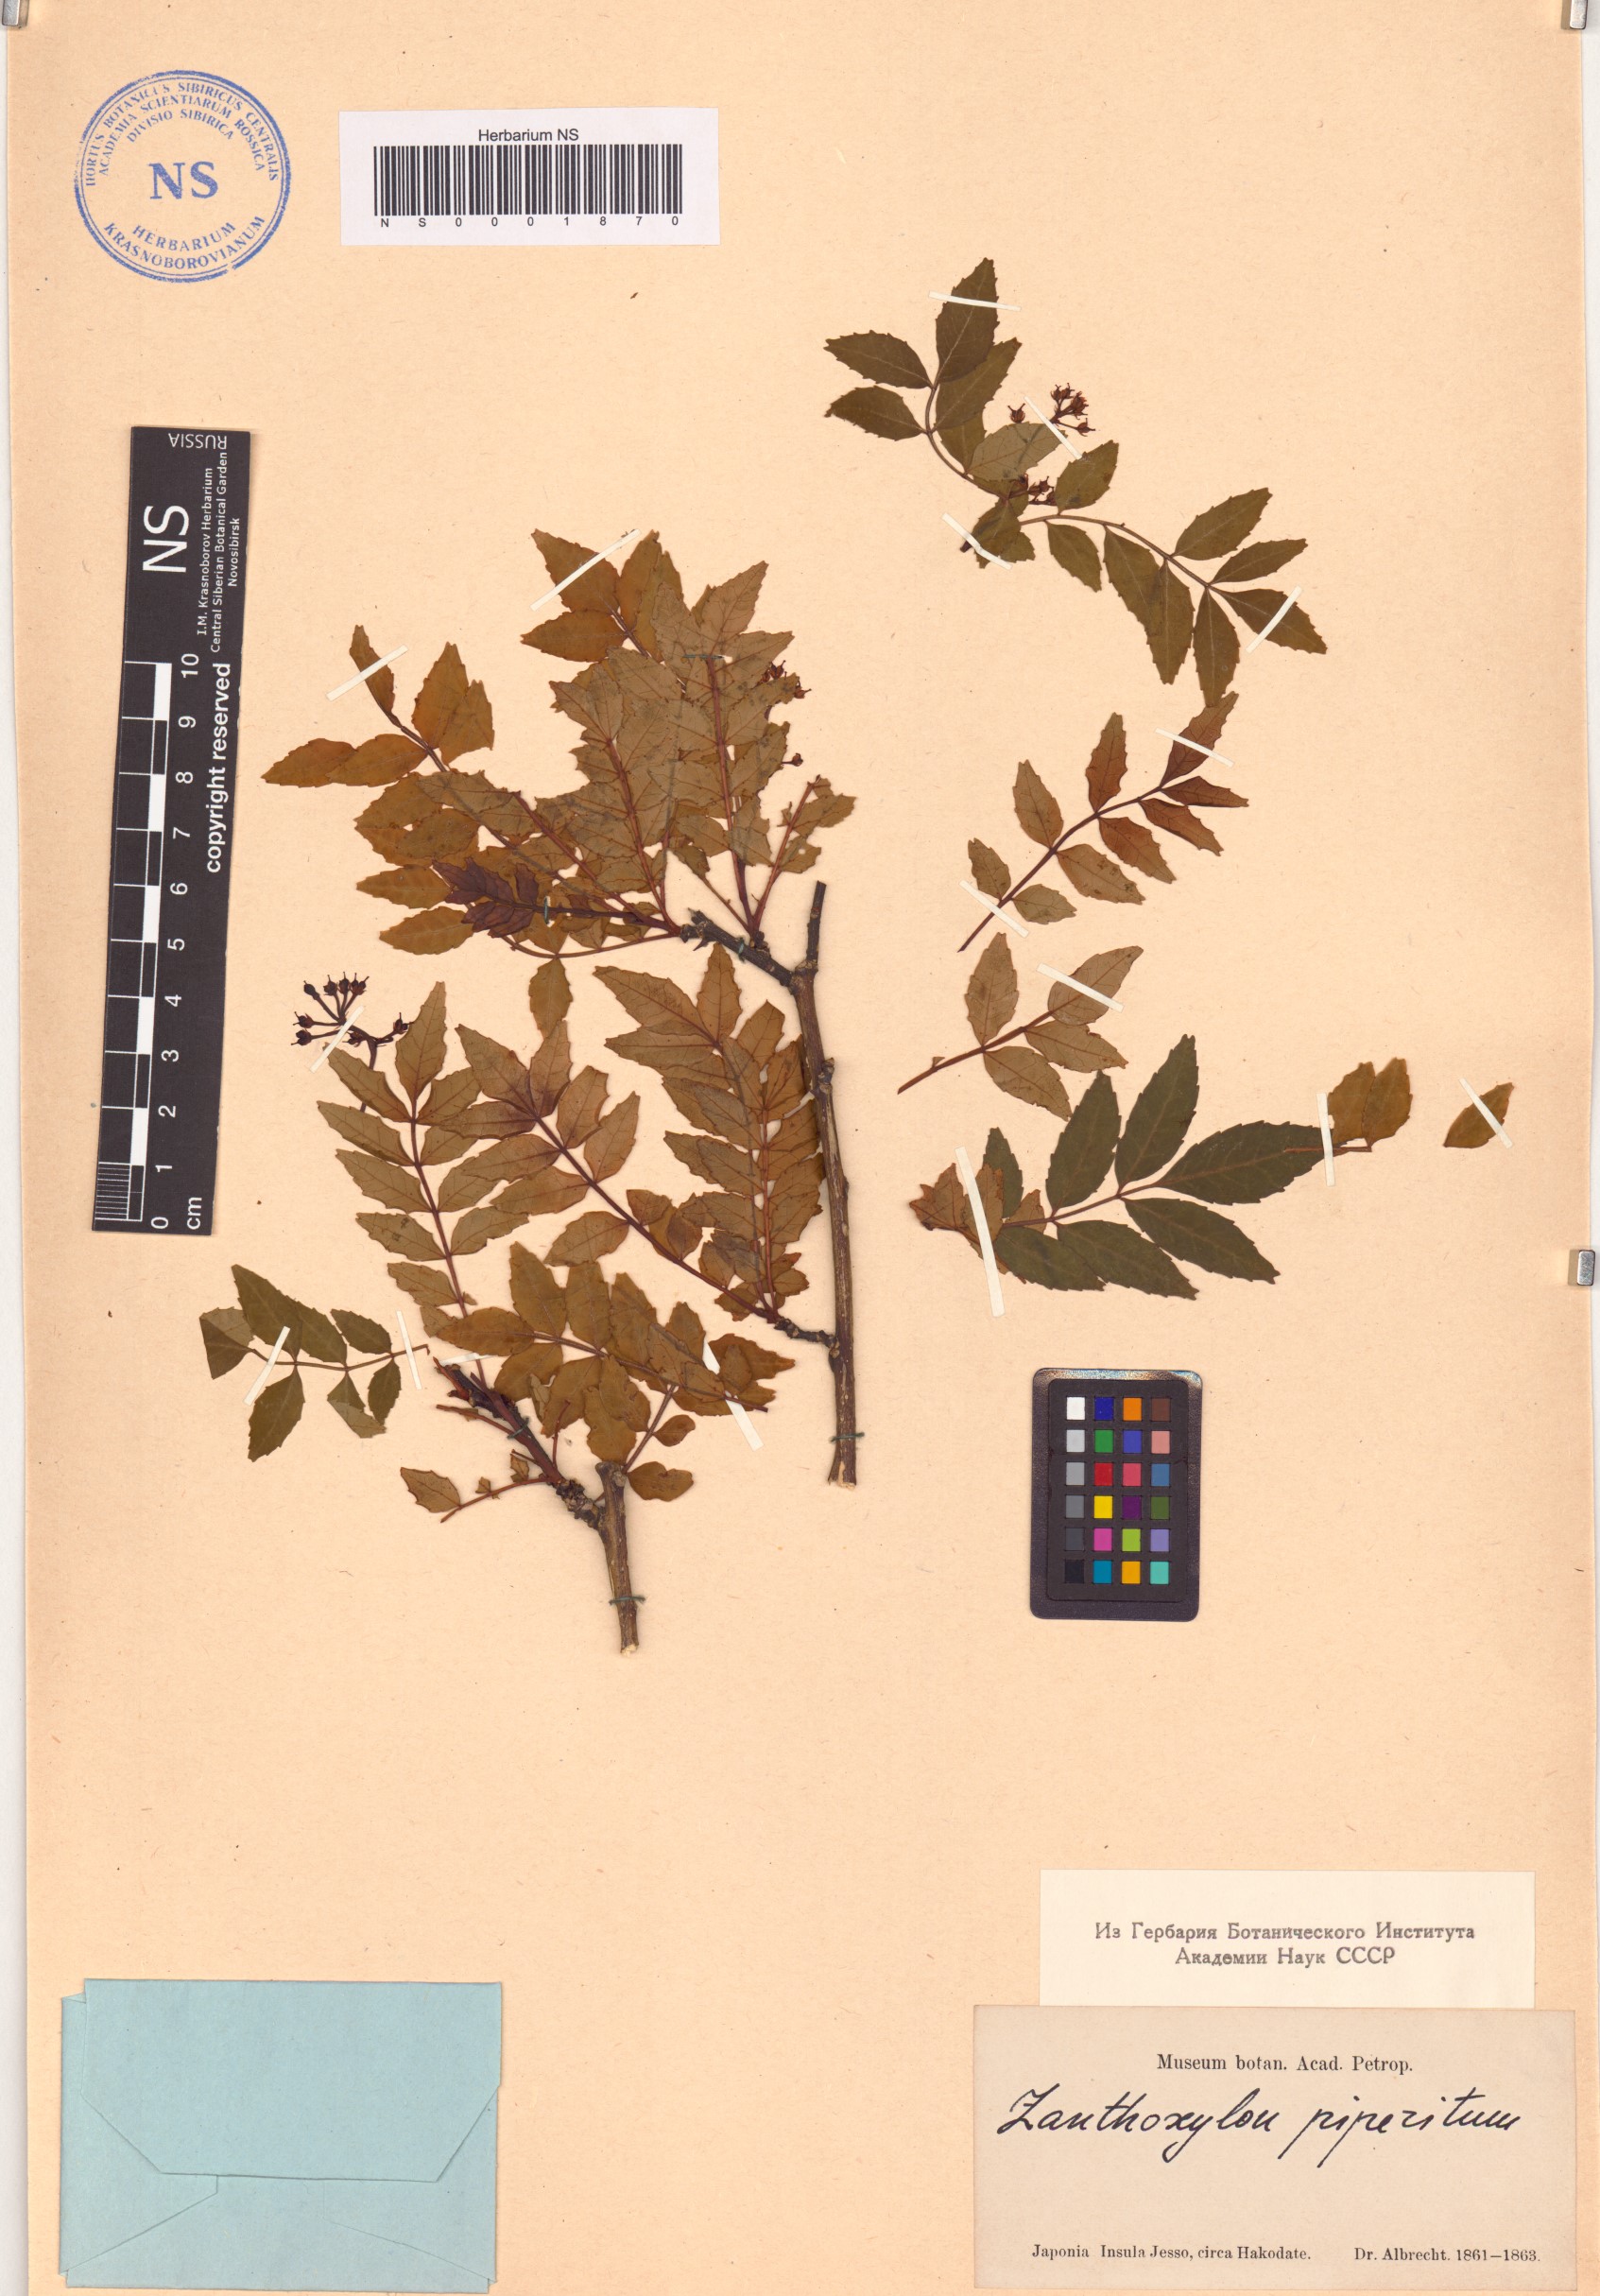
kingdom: Plantae
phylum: Tracheophyta
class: Magnoliopsida
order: Sapindales
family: Rutaceae
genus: Zanthoxylum
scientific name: Zanthoxylum piperitum
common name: Japanese-pepper
